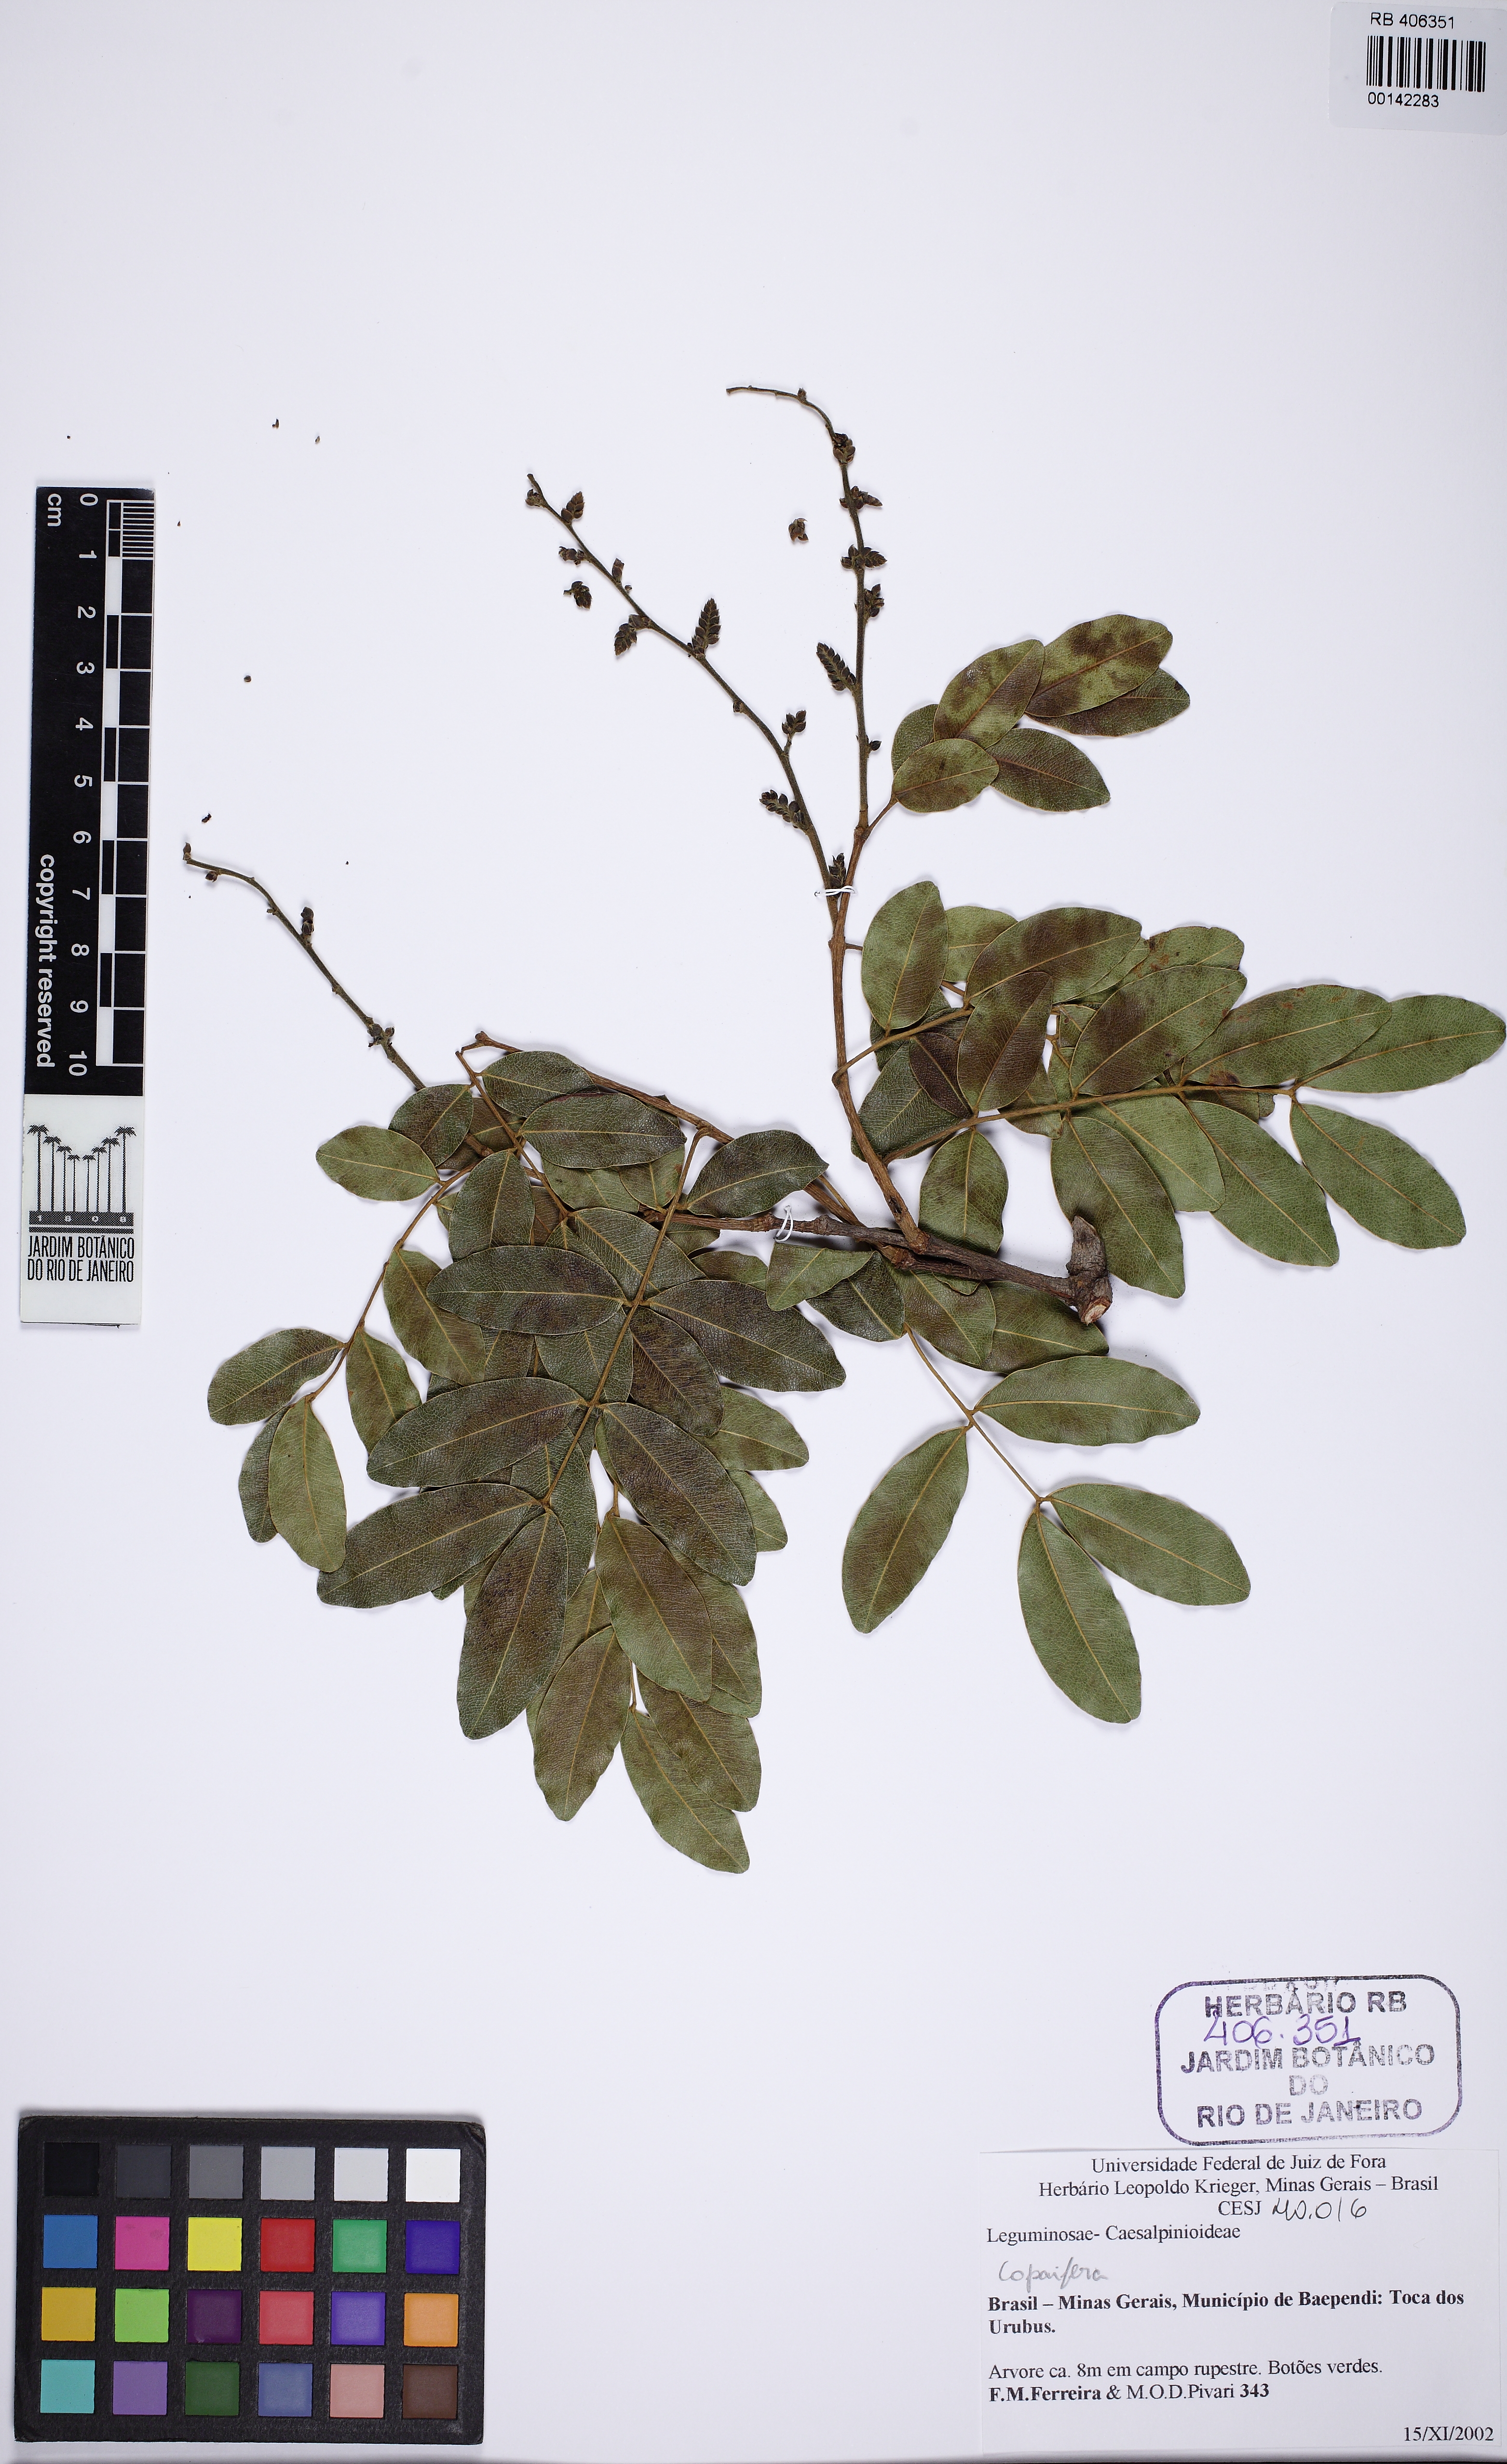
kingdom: Plantae
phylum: Tracheophyta
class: Magnoliopsida
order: Fabales
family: Fabaceae
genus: Copaifera
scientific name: Copaifera
